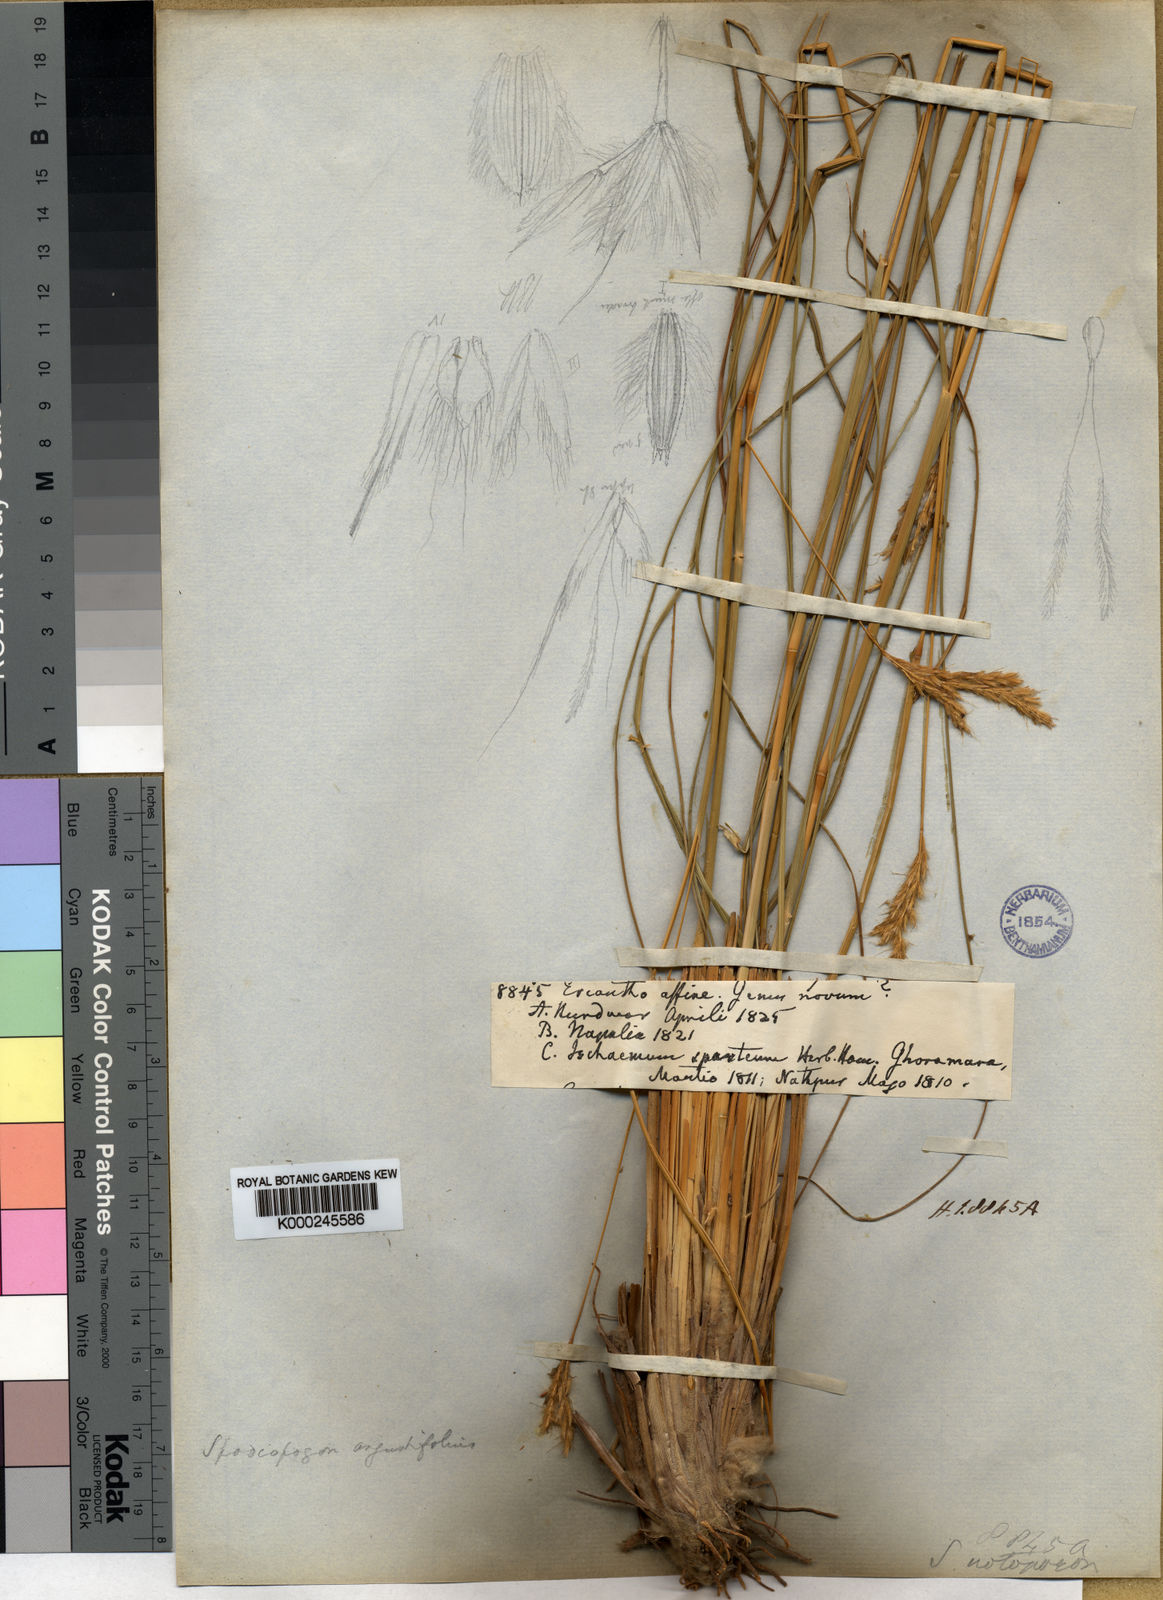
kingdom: Plantae
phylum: Tracheophyta
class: Liliopsida
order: Poales
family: Poaceae
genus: Eulaliopsis
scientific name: Eulaliopsis binata
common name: Baib grass
